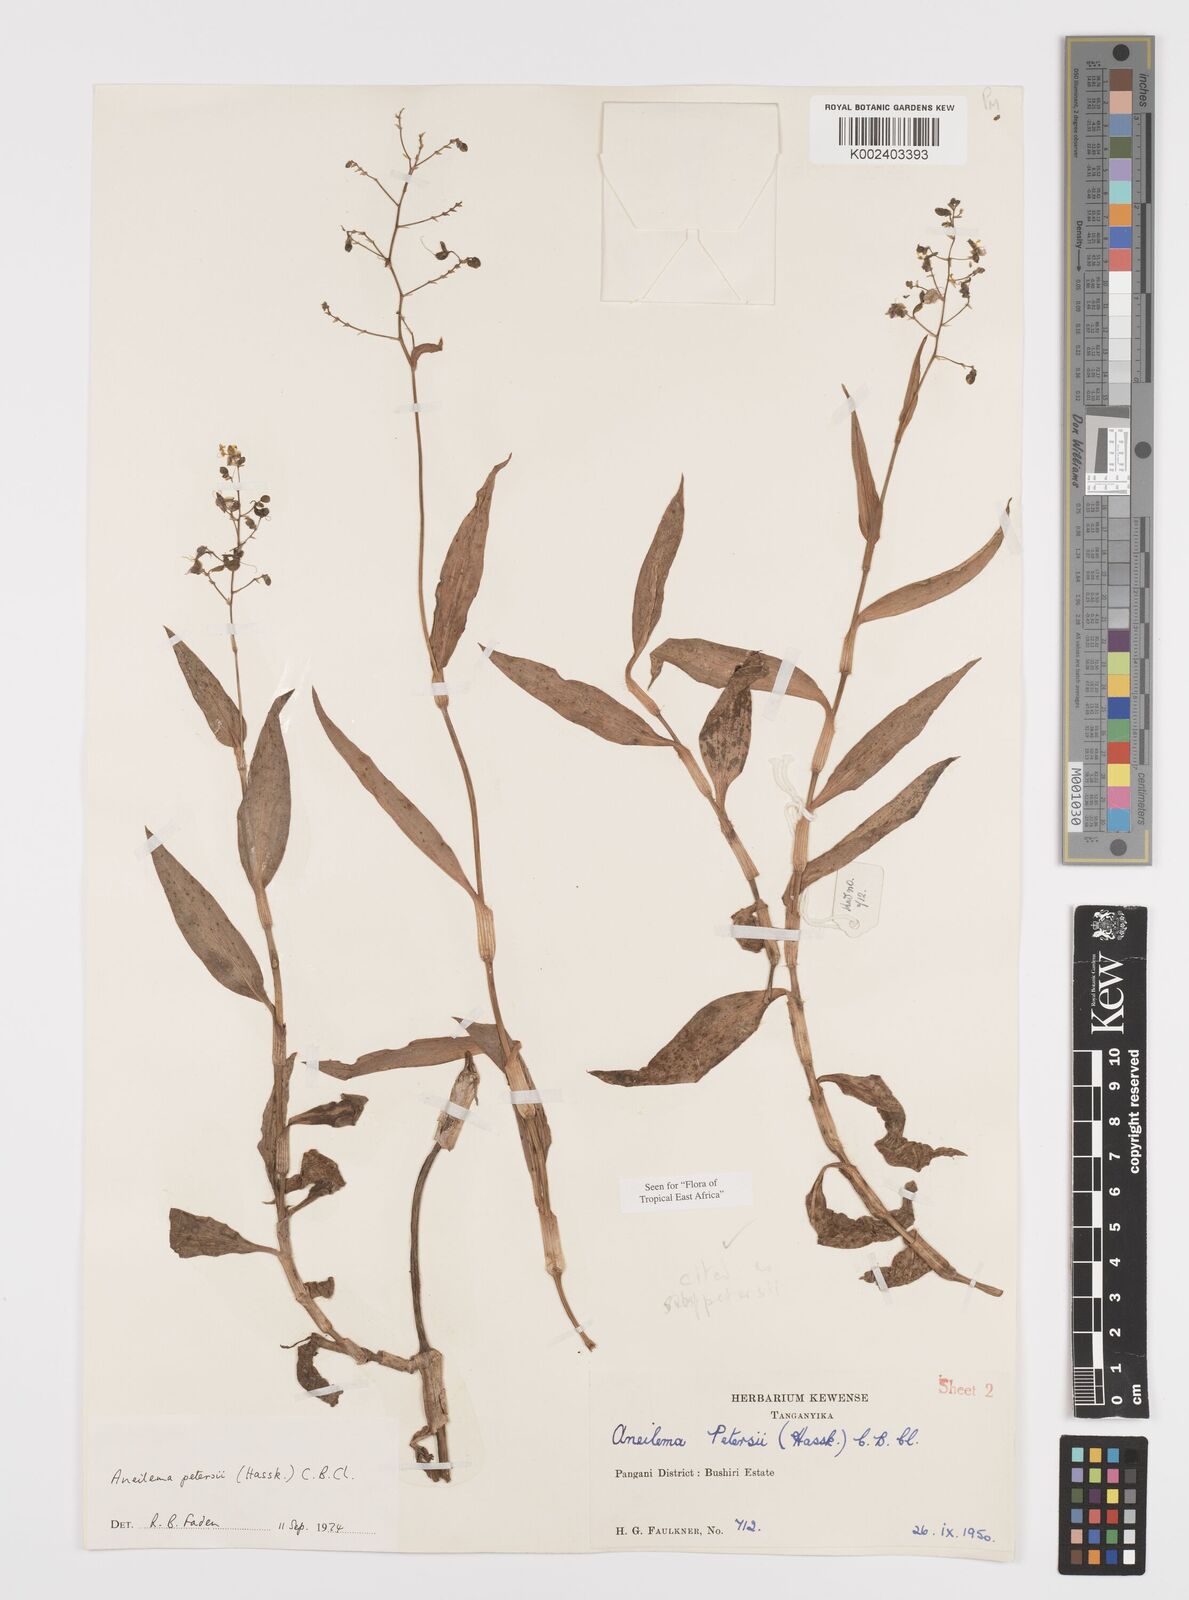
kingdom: Plantae
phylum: Tracheophyta
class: Liliopsida
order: Commelinales
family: Commelinaceae
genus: Aneilema
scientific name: Aneilema petersii
